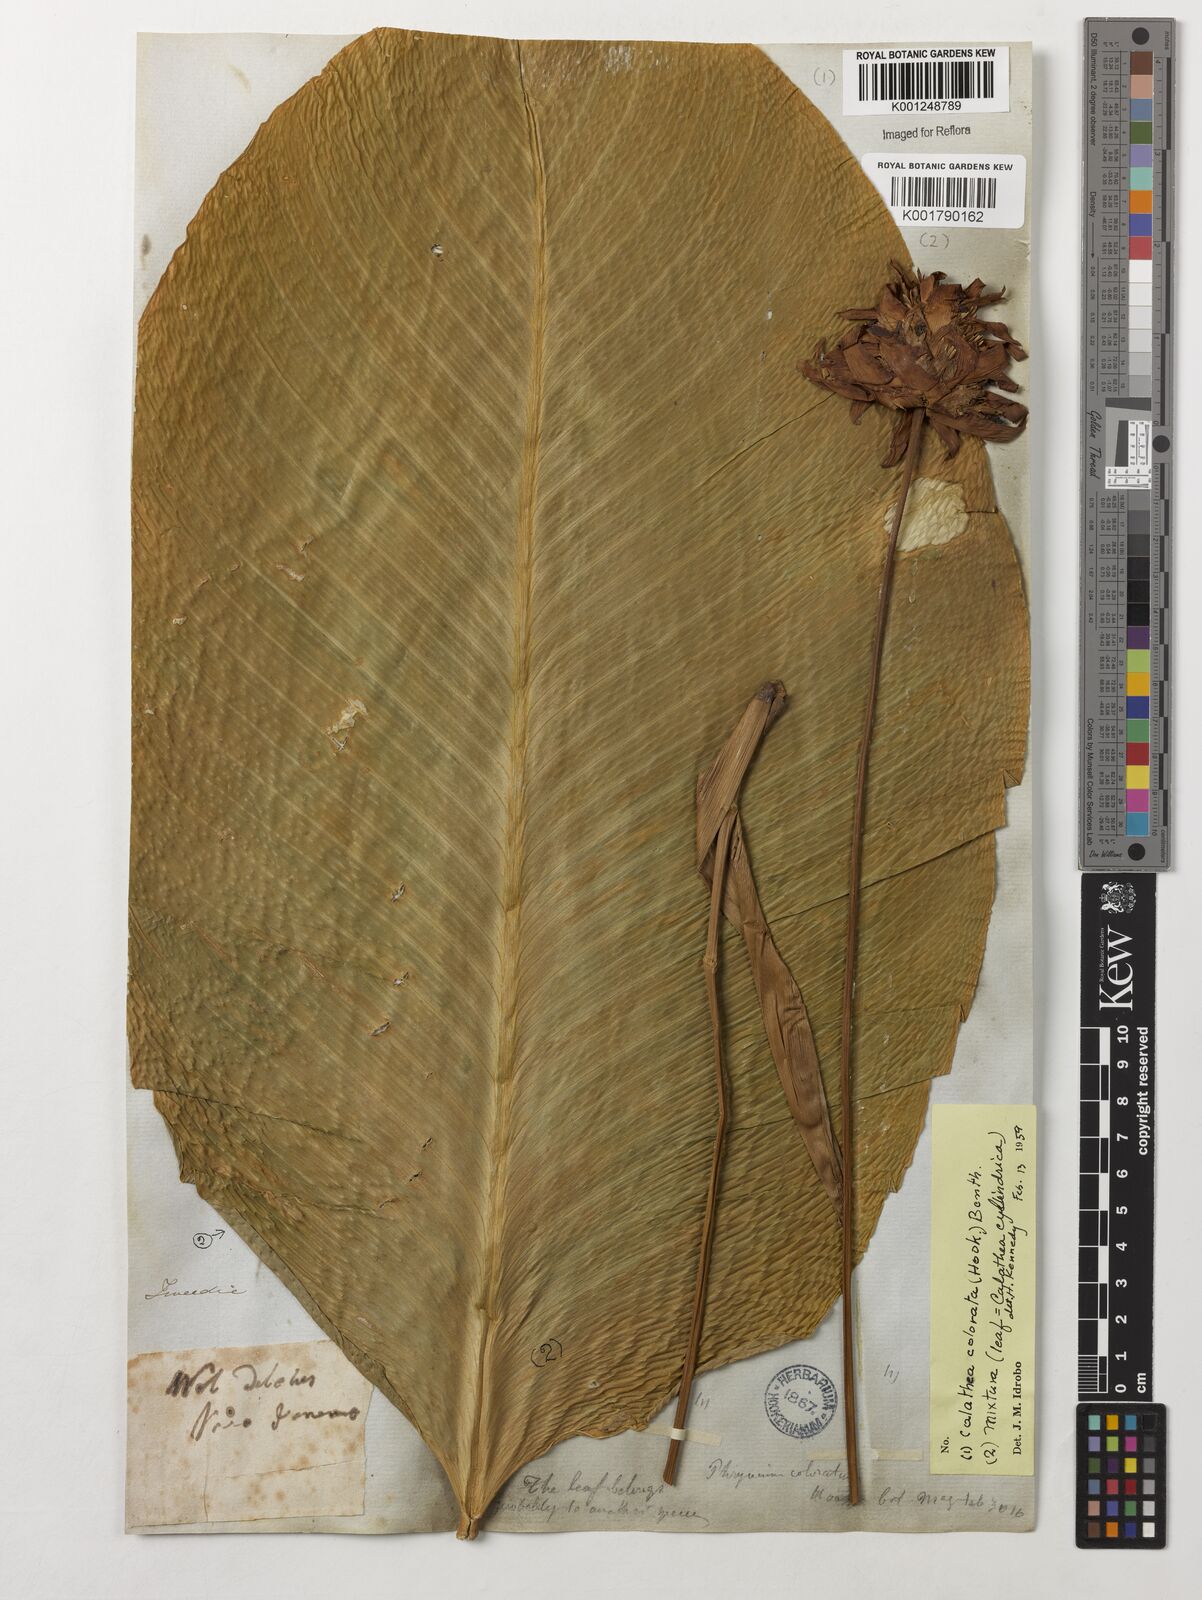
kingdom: Plantae
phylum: Tracheophyta
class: Liliopsida
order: Zingiberales
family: Marantaceae
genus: Goeppertia
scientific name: Goeppertia cylindrica
